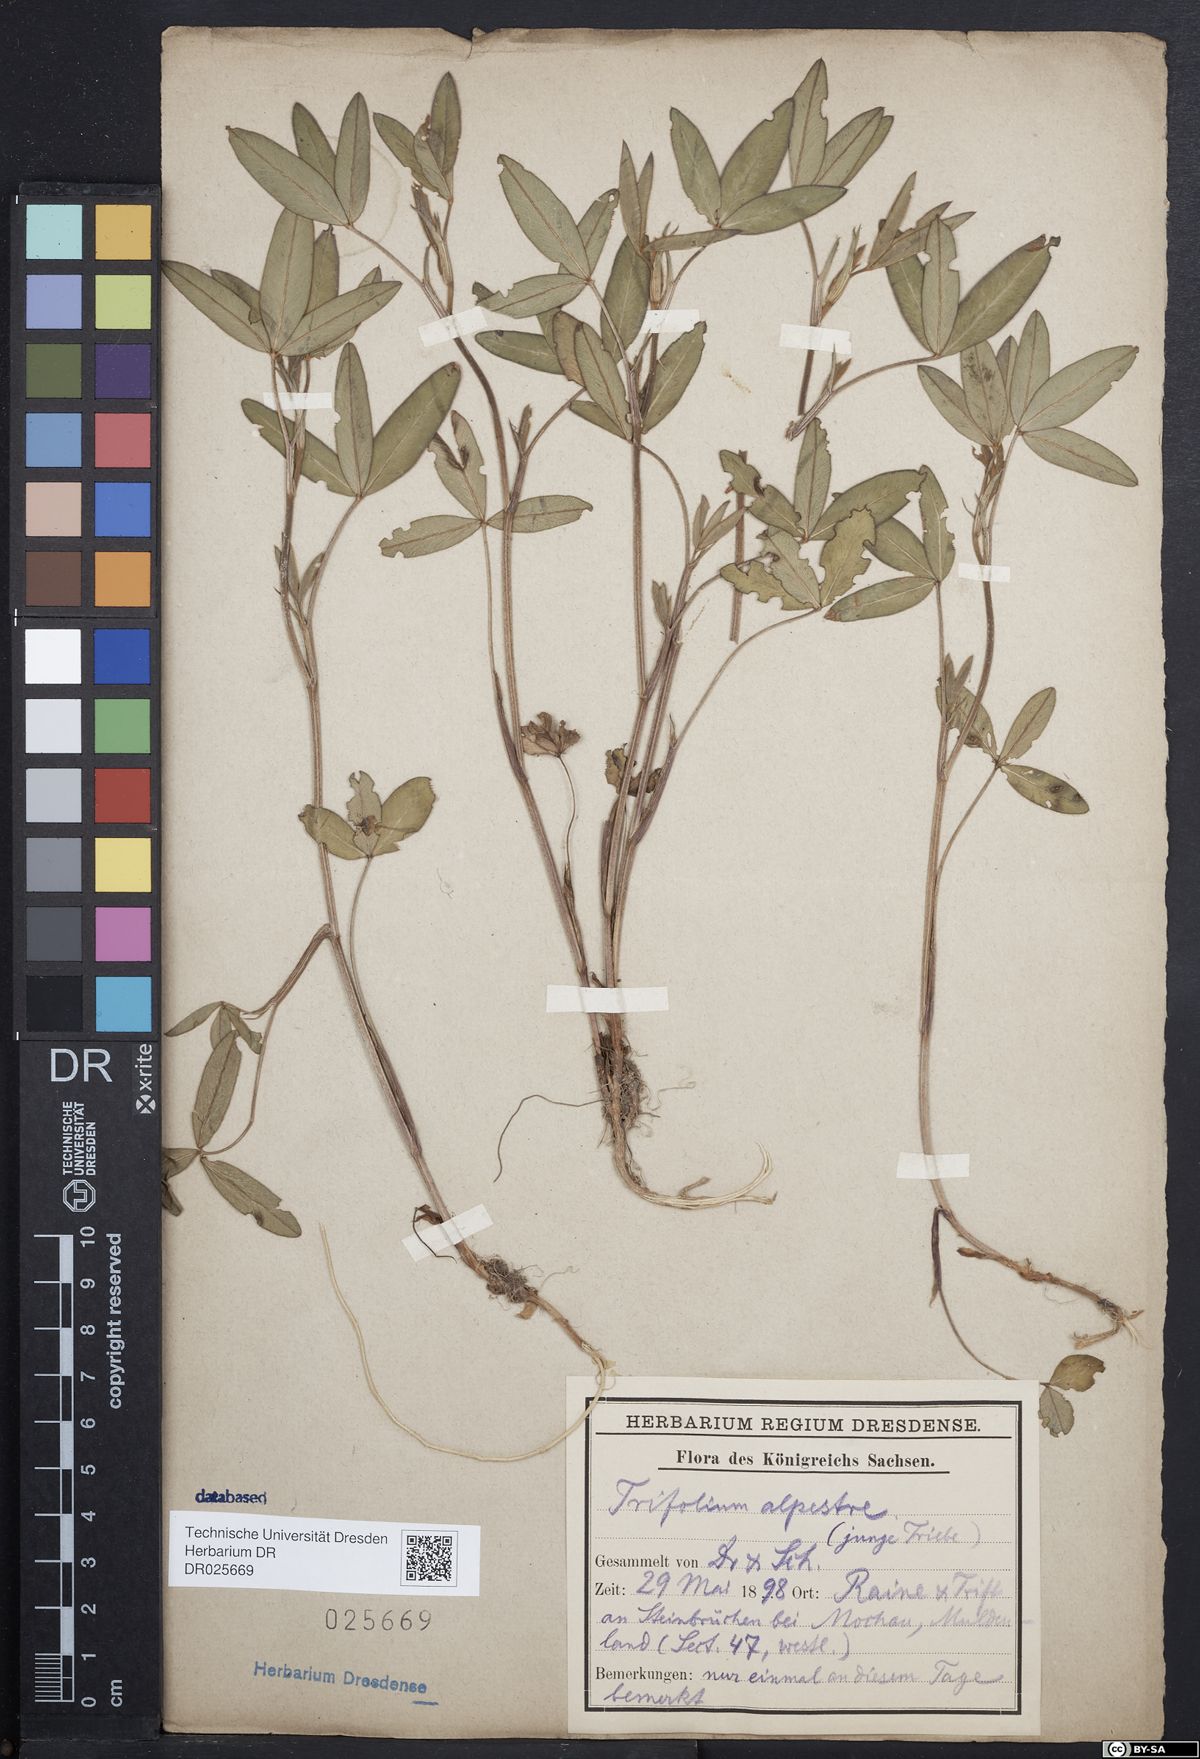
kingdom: Plantae
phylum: Tracheophyta
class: Magnoliopsida
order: Fabales
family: Fabaceae
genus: Trifolium
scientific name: Trifolium alpestre
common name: Owl-head clover
